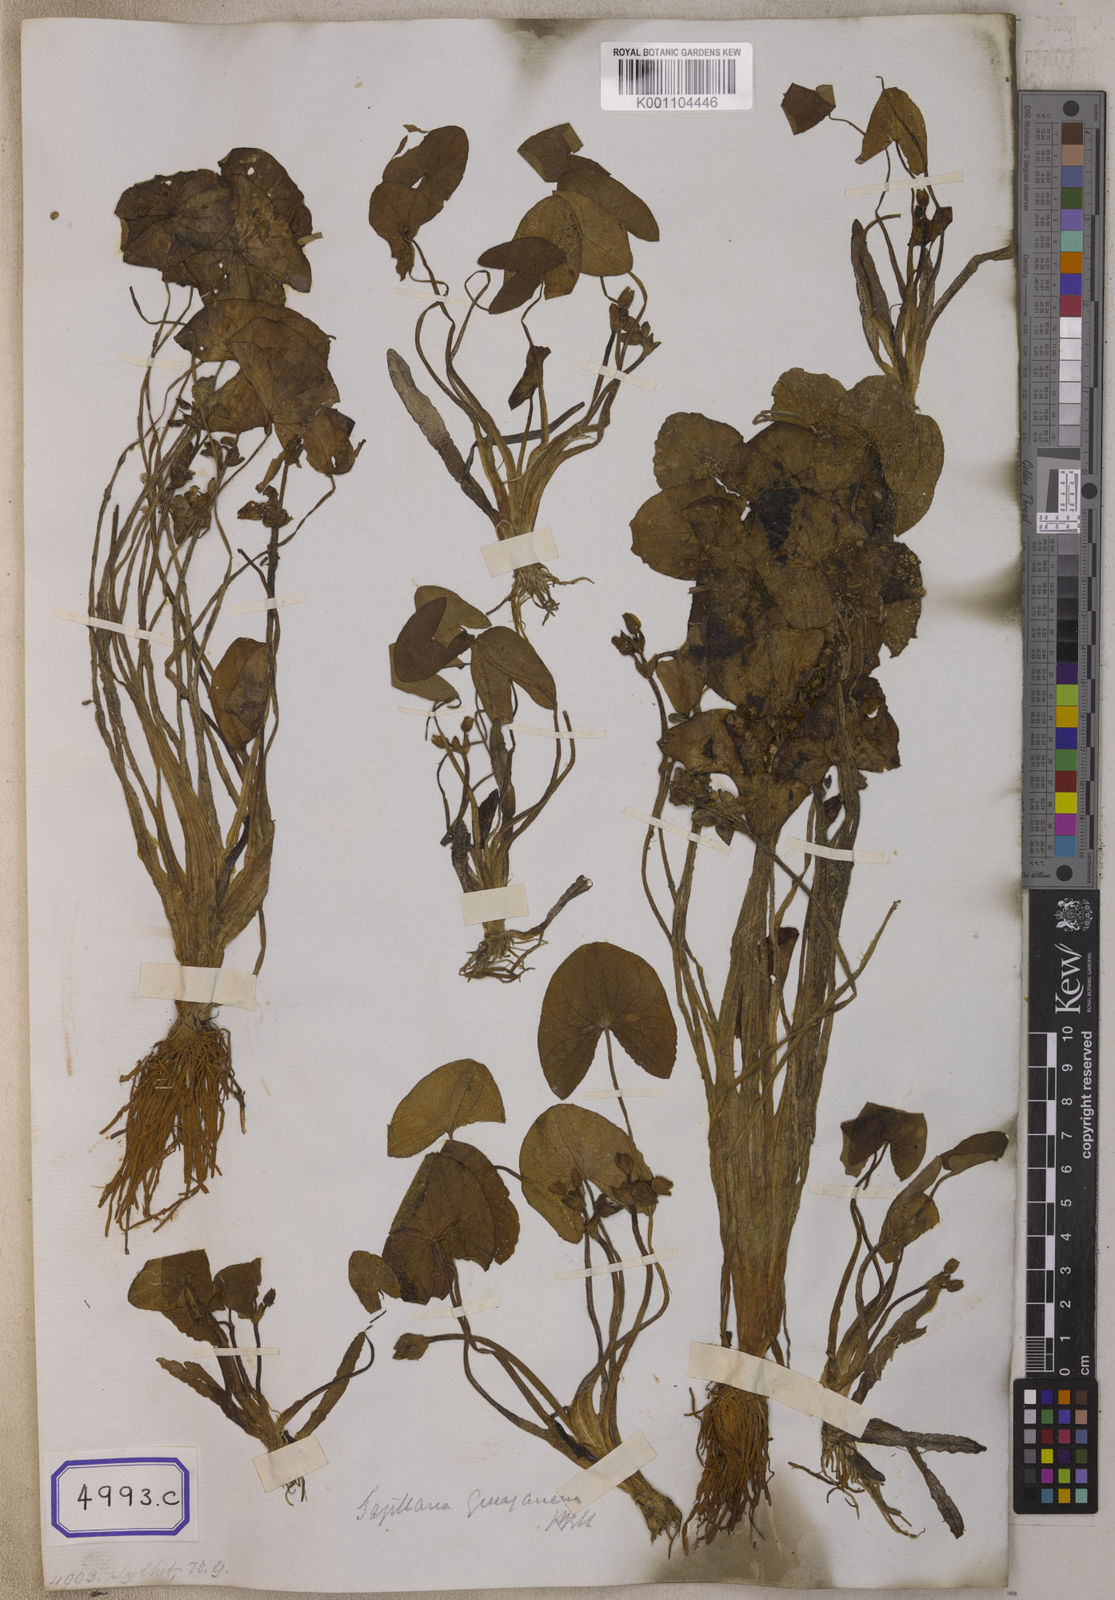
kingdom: Plantae
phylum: Tracheophyta
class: Liliopsida
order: Alismatales
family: Alismataceae
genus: Sagittaria
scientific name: Sagittaria guayanensis
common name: Guyanese arrowhead
